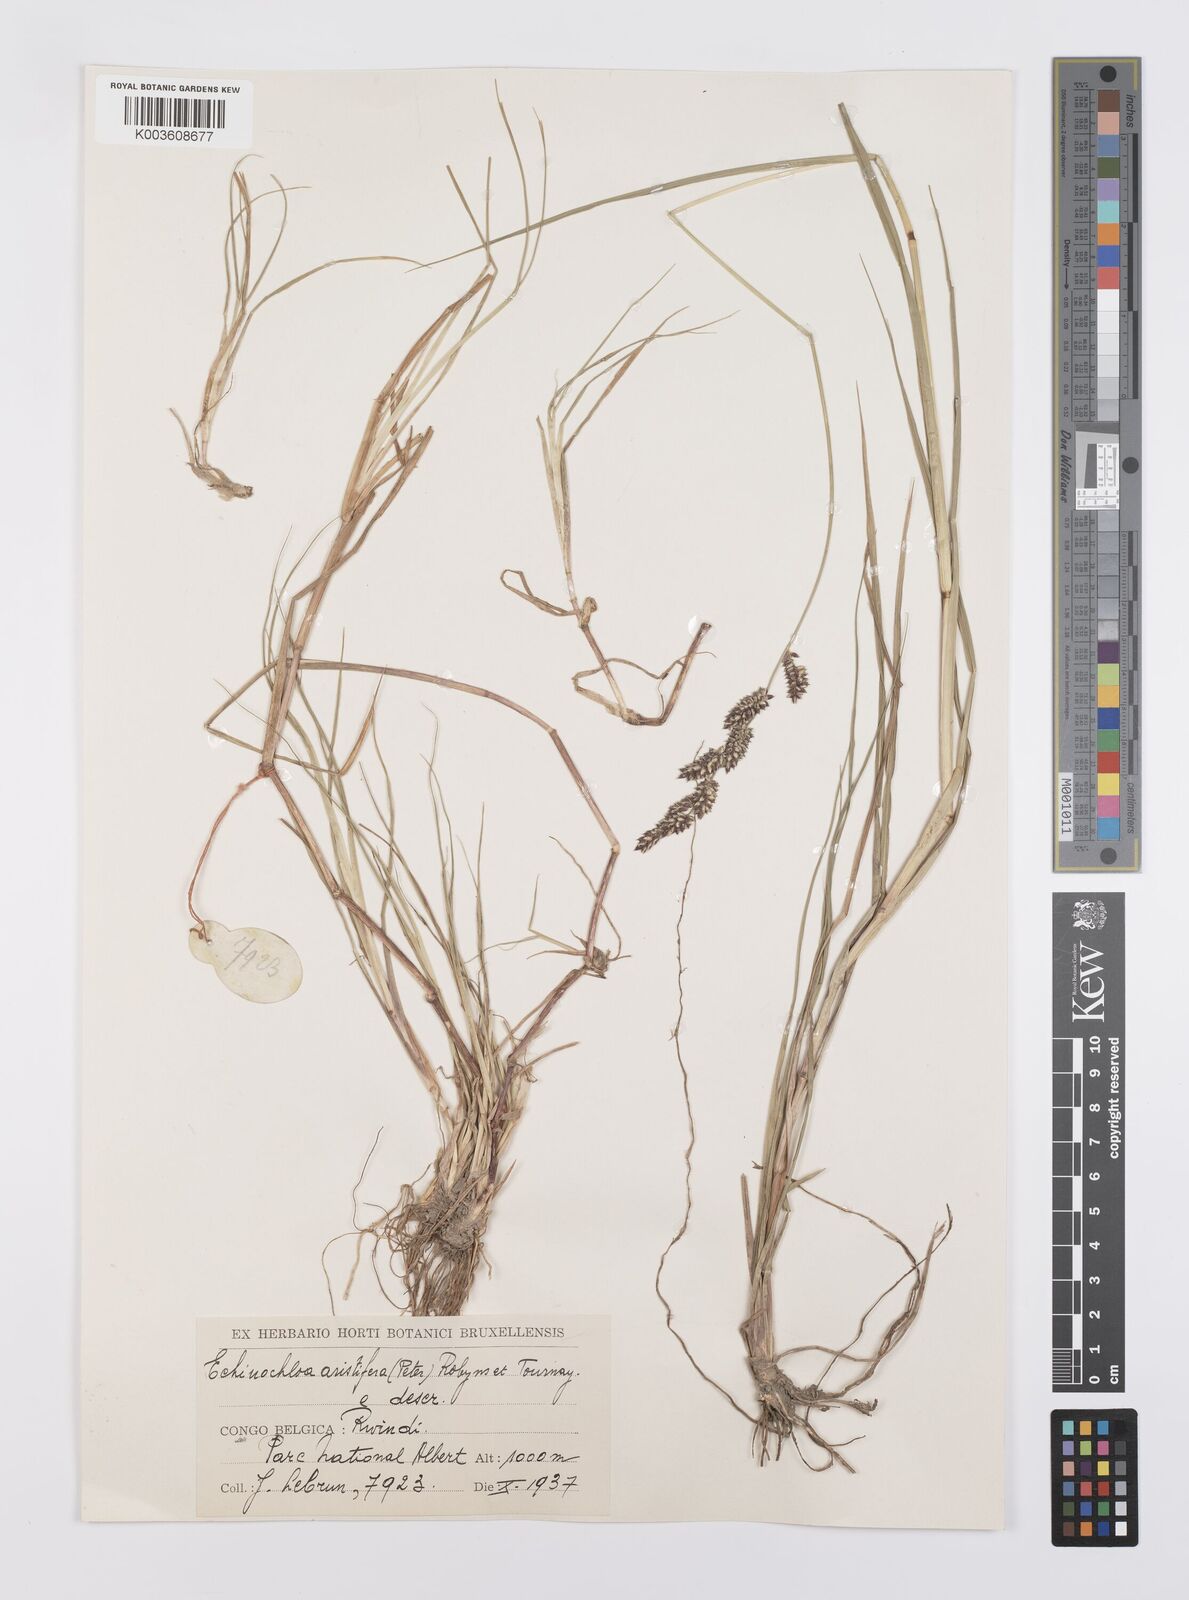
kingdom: Plantae
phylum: Tracheophyta
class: Liliopsida
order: Poales
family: Poaceae
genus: Echinochloa
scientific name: Echinochloa haploclada
